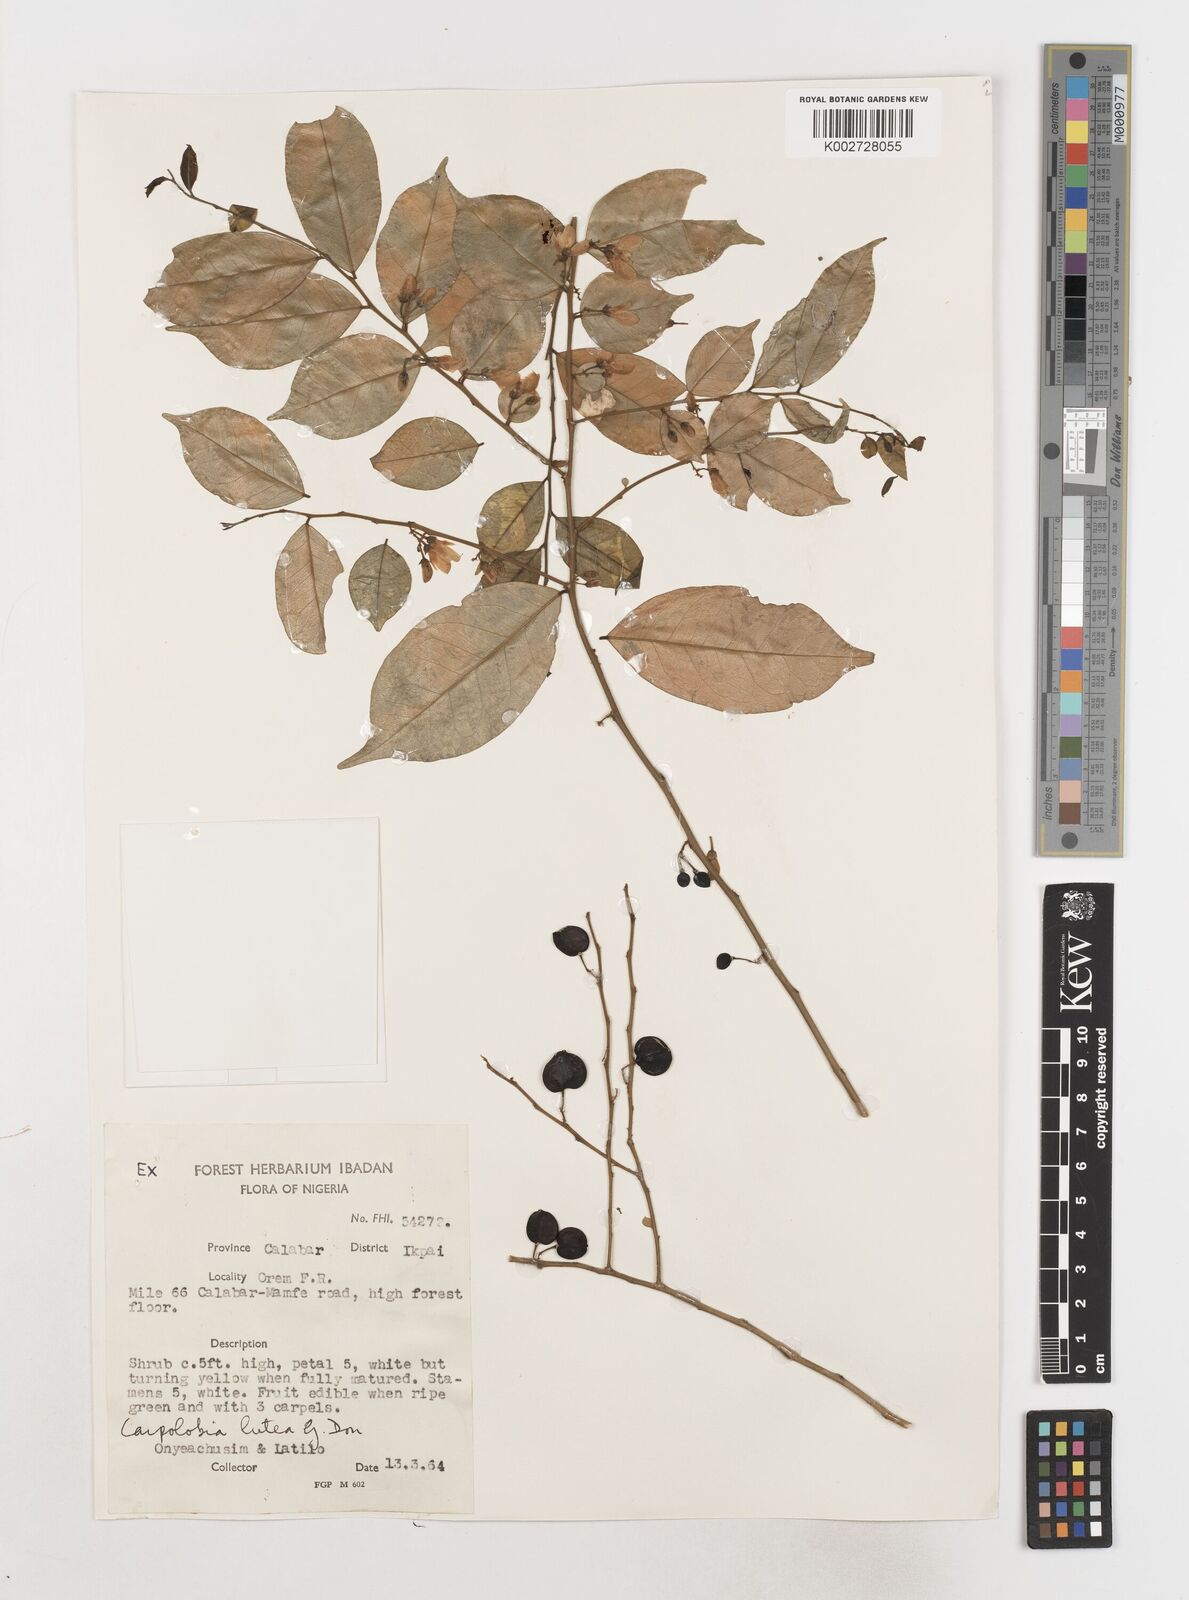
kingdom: Plantae
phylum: Tracheophyta
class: Magnoliopsida
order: Fabales
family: Polygalaceae
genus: Carpolobia
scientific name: Carpolobia lutea
